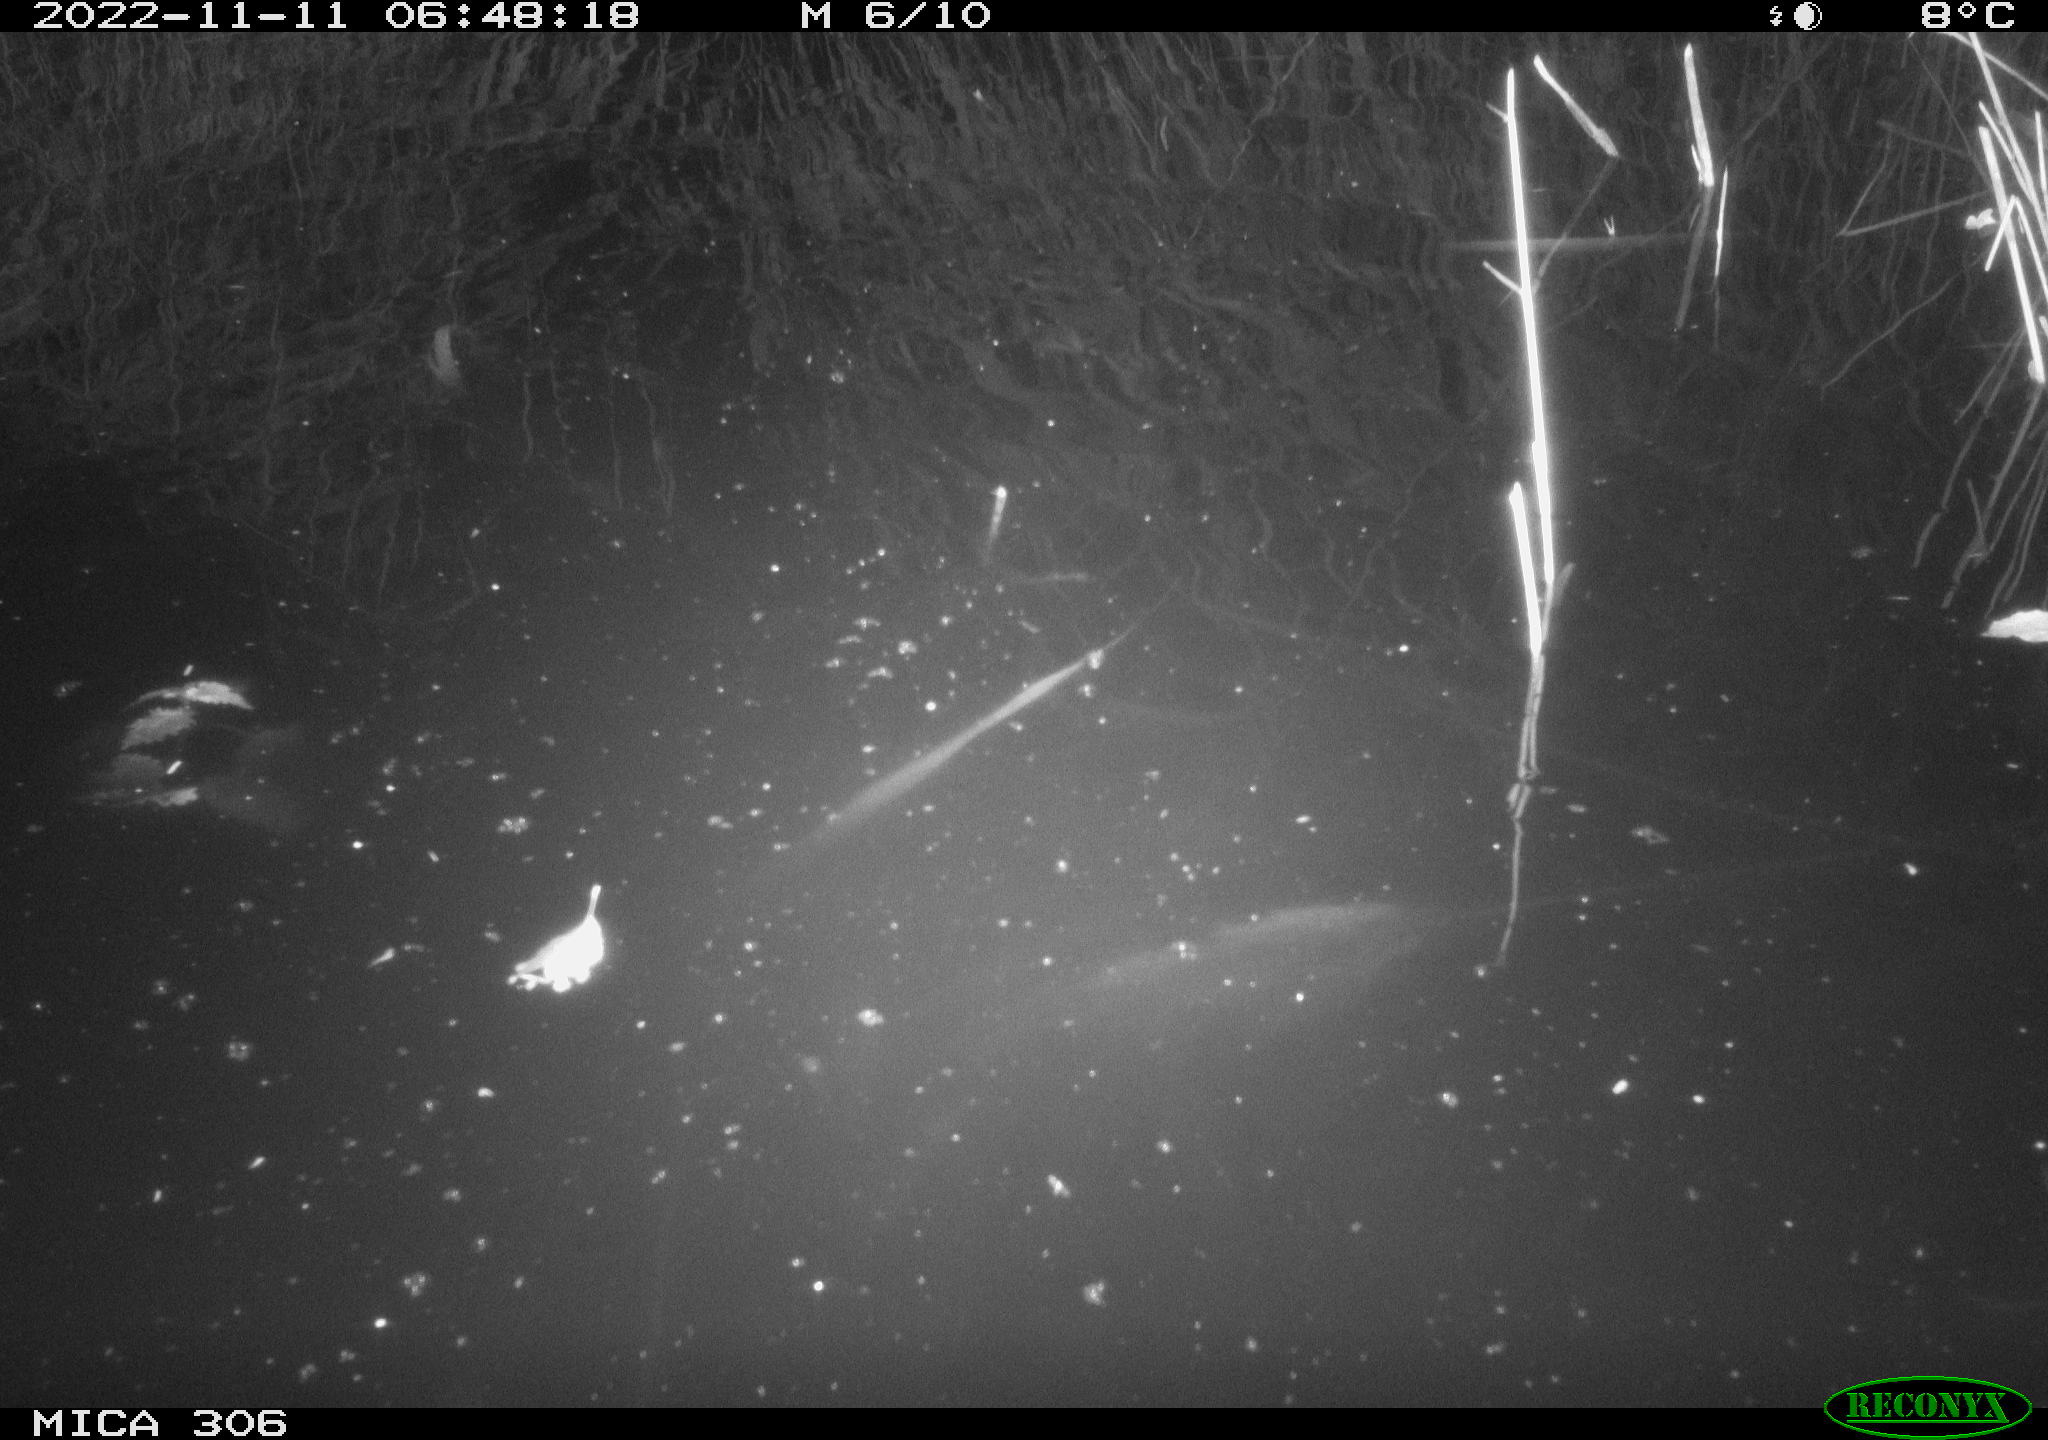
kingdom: Animalia
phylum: Chordata
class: Mammalia
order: Rodentia
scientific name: Rodentia
